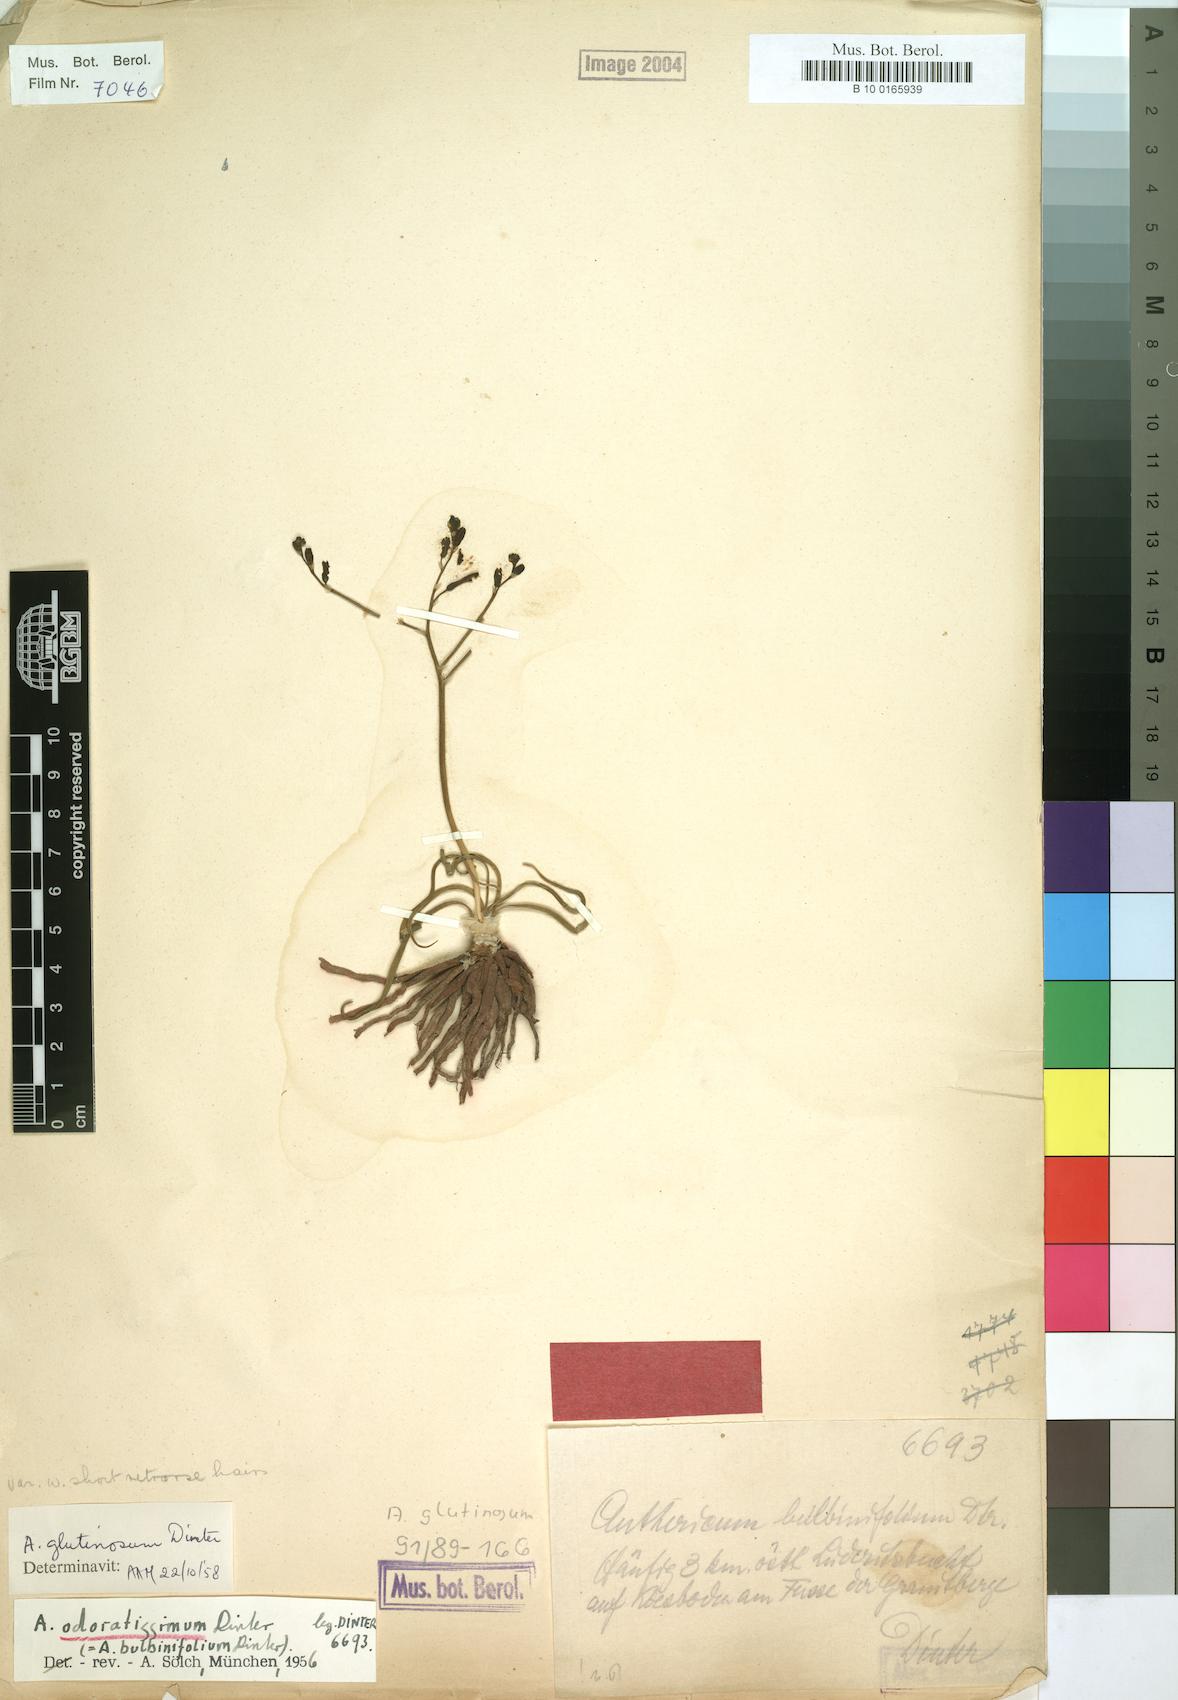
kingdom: Plantae
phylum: Tracheophyta
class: Liliopsida
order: Asparagales
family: Asphodelaceae
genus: Trachyandra
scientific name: Trachyandra laxa
